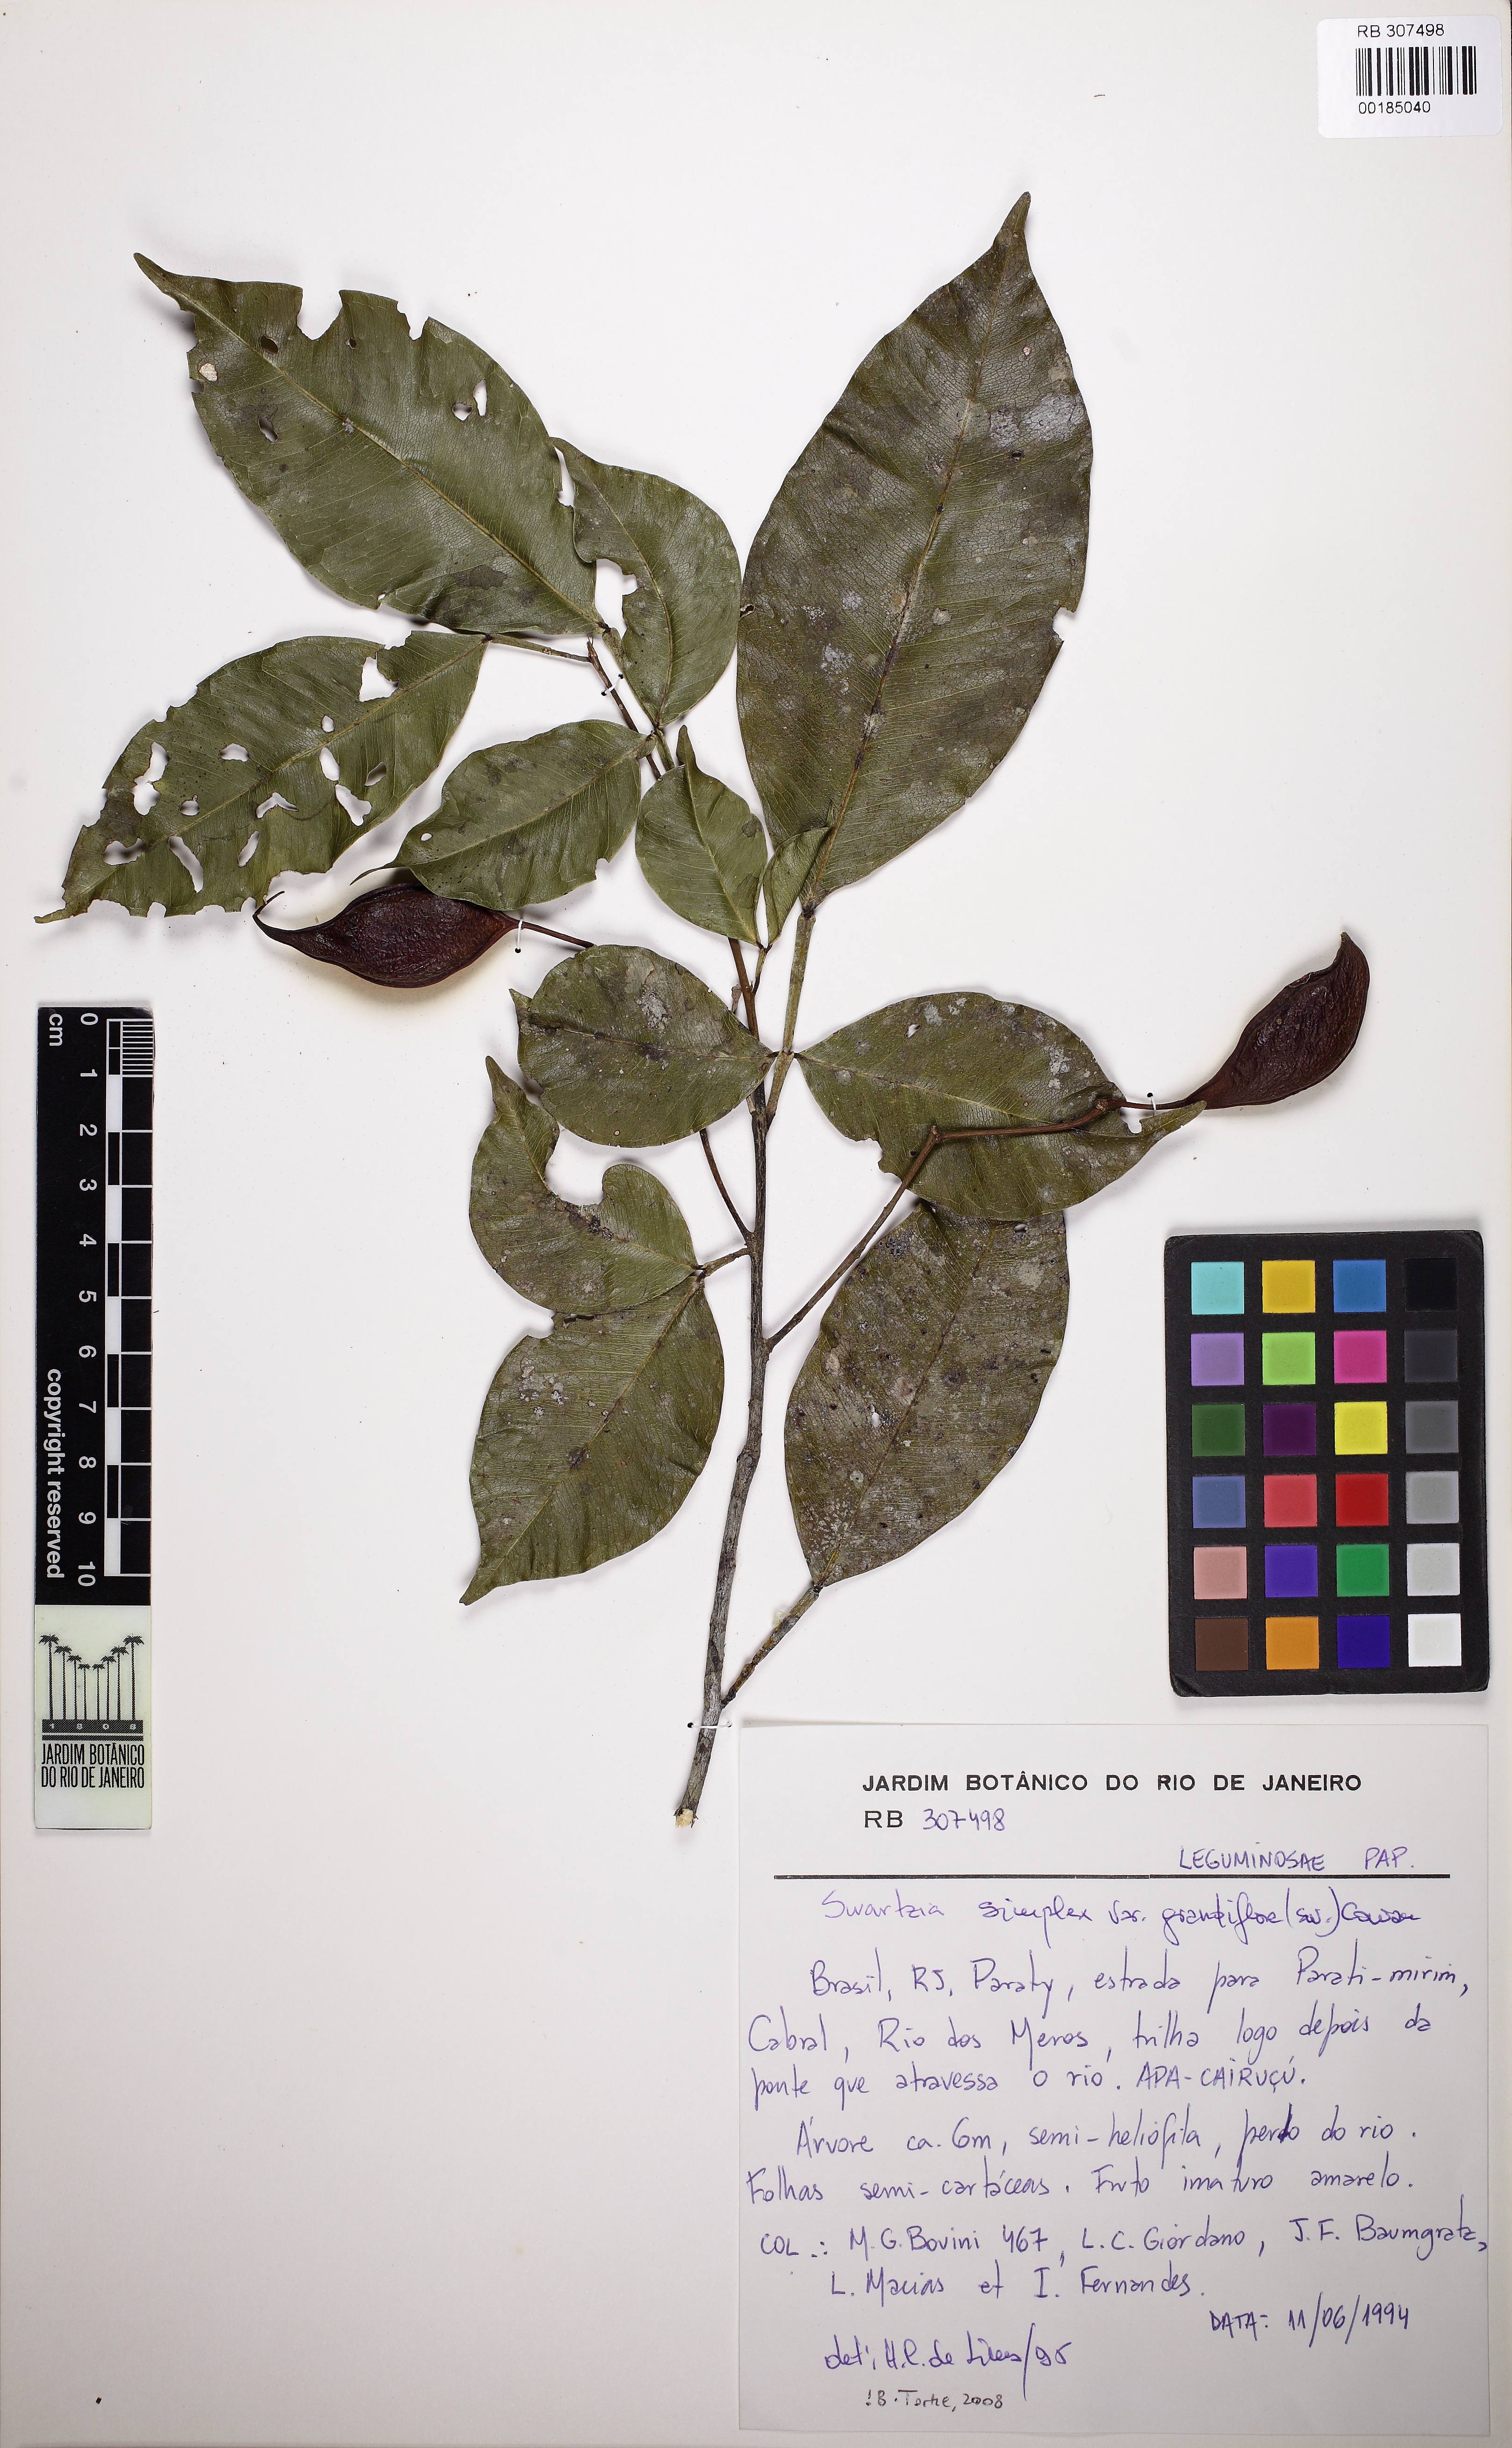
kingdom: Plantae
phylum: Tracheophyta
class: Magnoliopsida
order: Fabales
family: Fabaceae
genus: Swartzia
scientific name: Swartzia simplex
